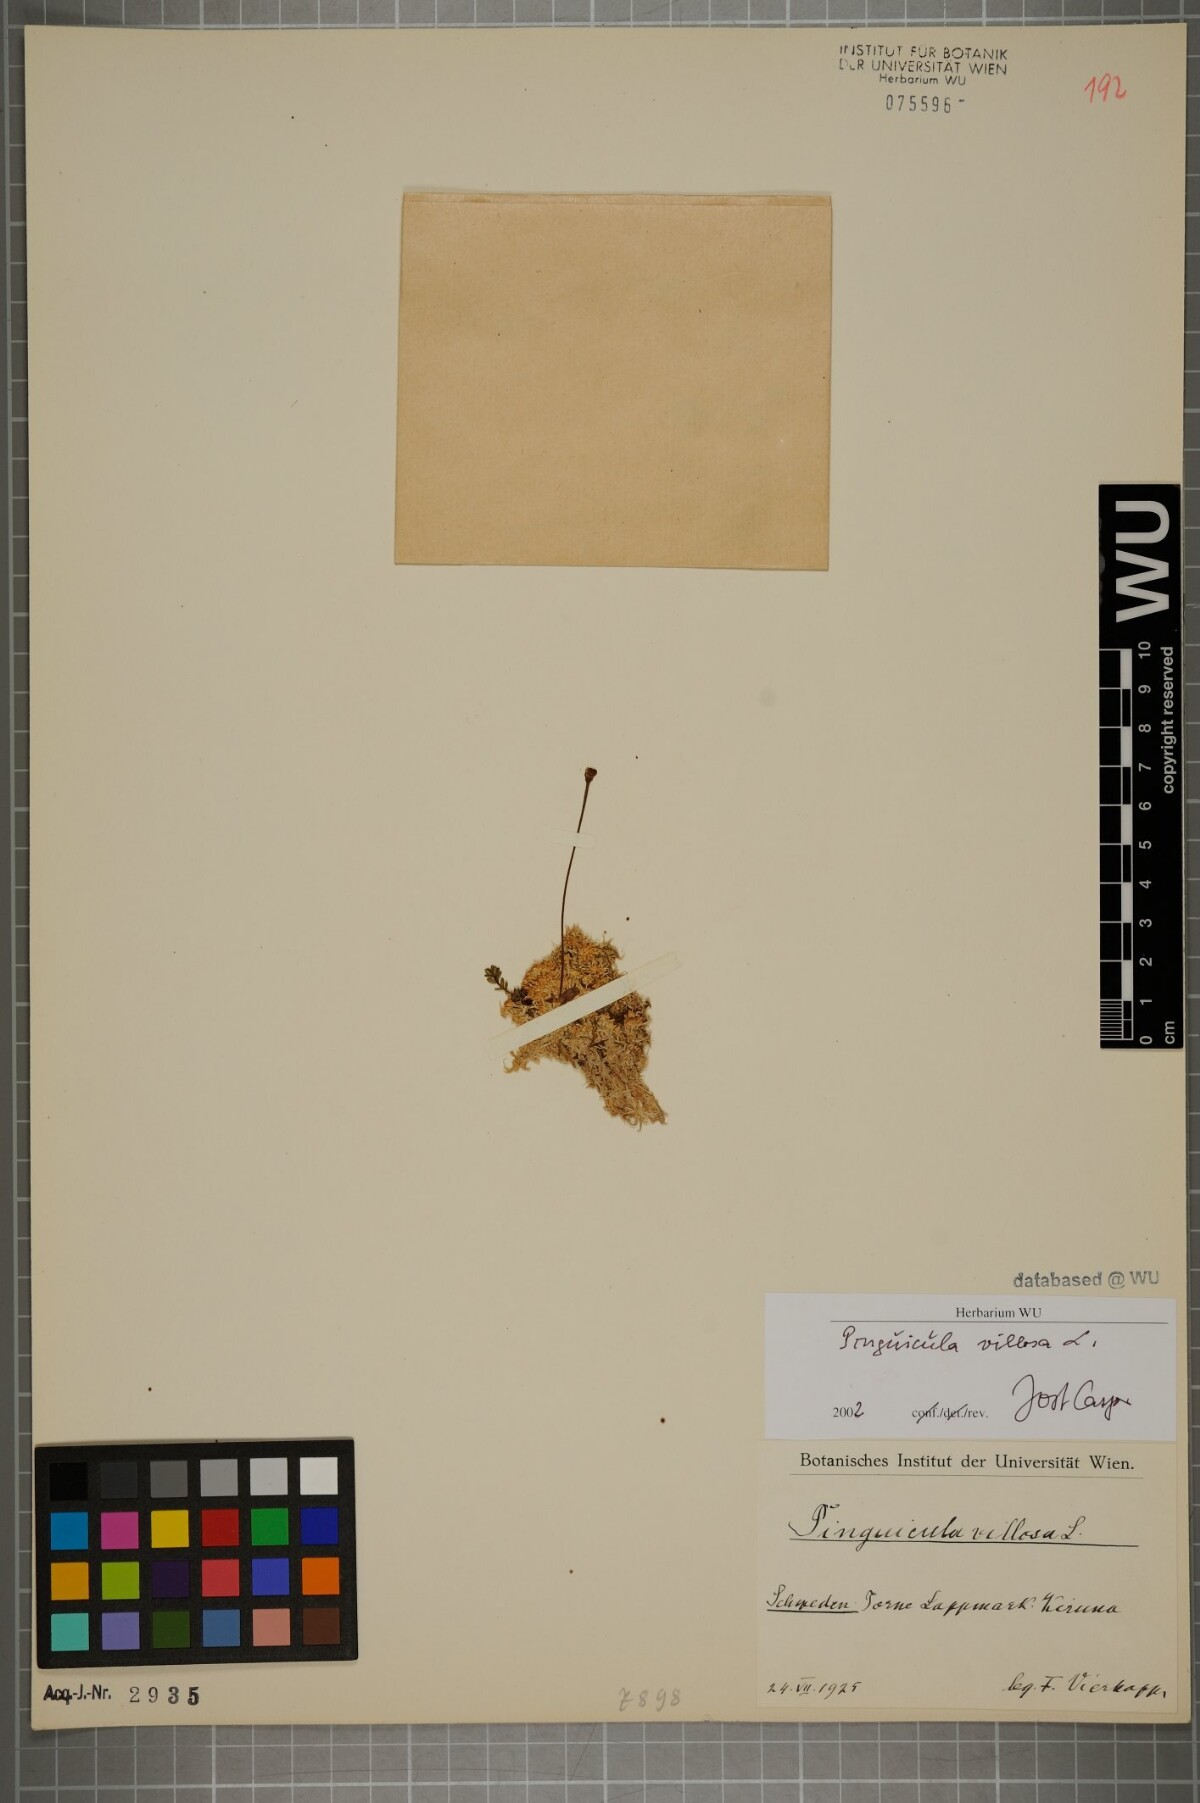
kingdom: Plantae
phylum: Tracheophyta
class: Magnoliopsida
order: Lamiales
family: Lentibulariaceae
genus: Pinguicula
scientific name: Pinguicula villosa
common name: Hairy butterwort
